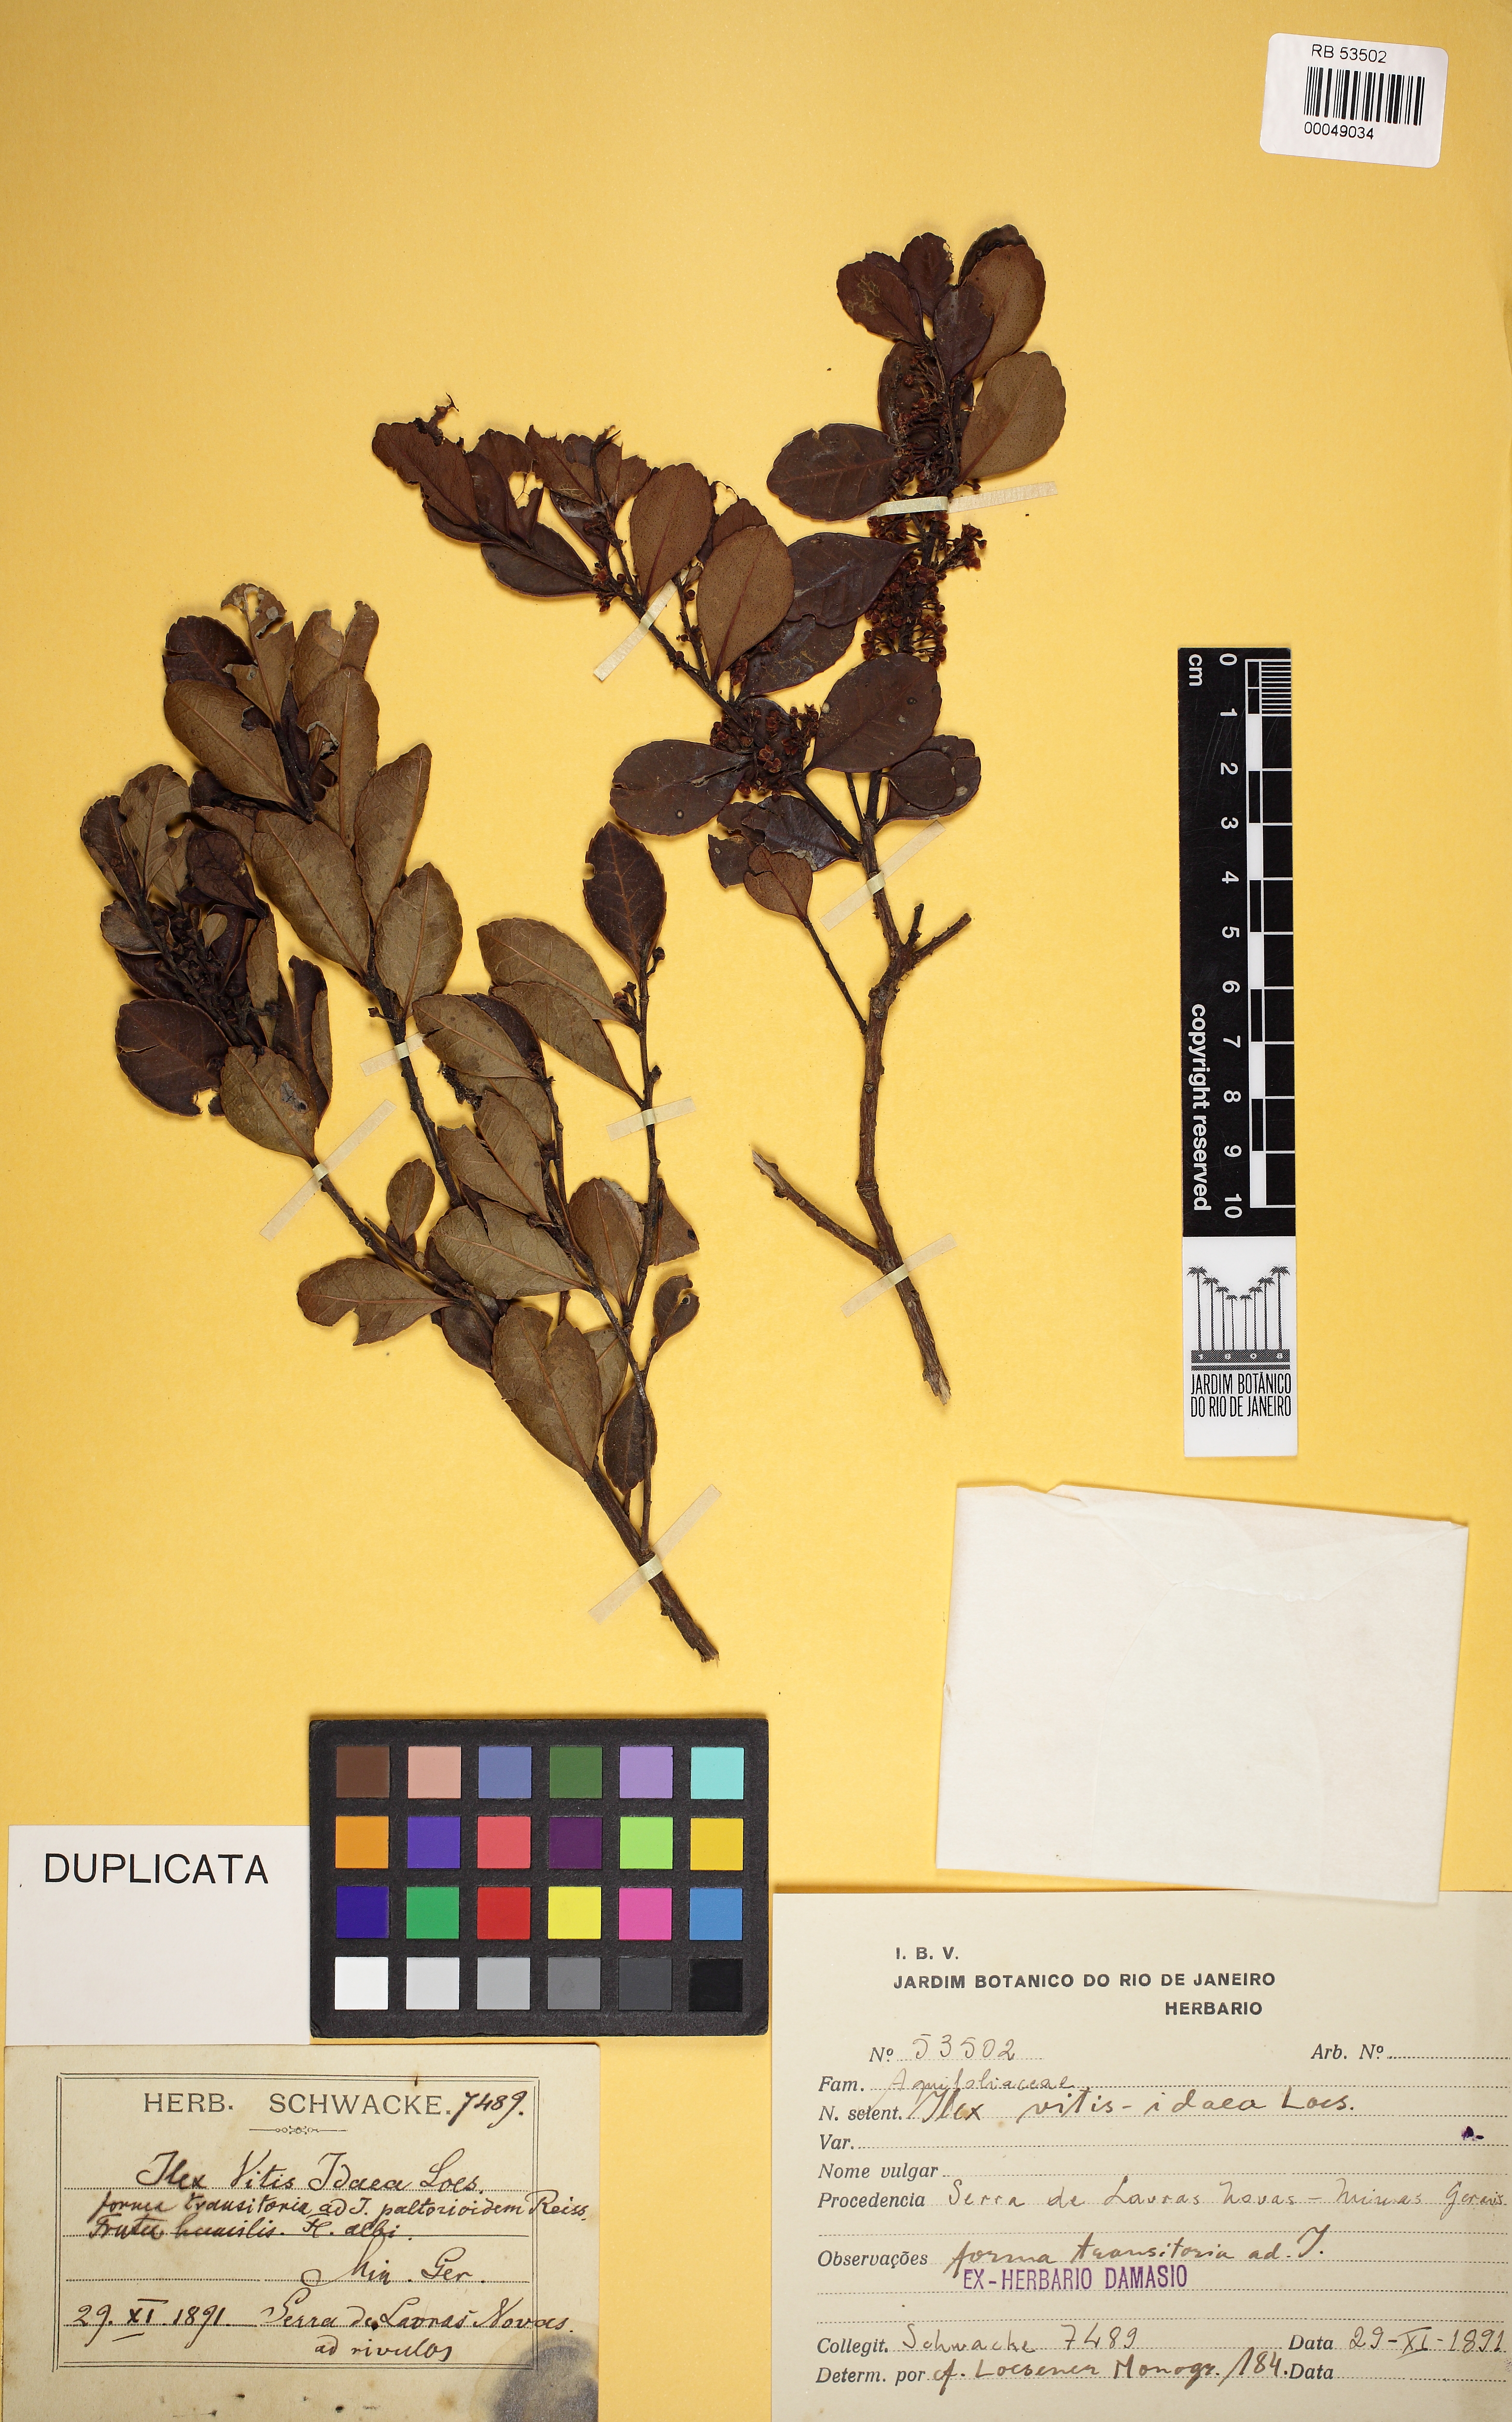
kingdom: Plantae
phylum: Tracheophyta
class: Magnoliopsida
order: Aquifoliales
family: Aquifoliaceae
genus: Ilex
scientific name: Ilex vitis-idaea
